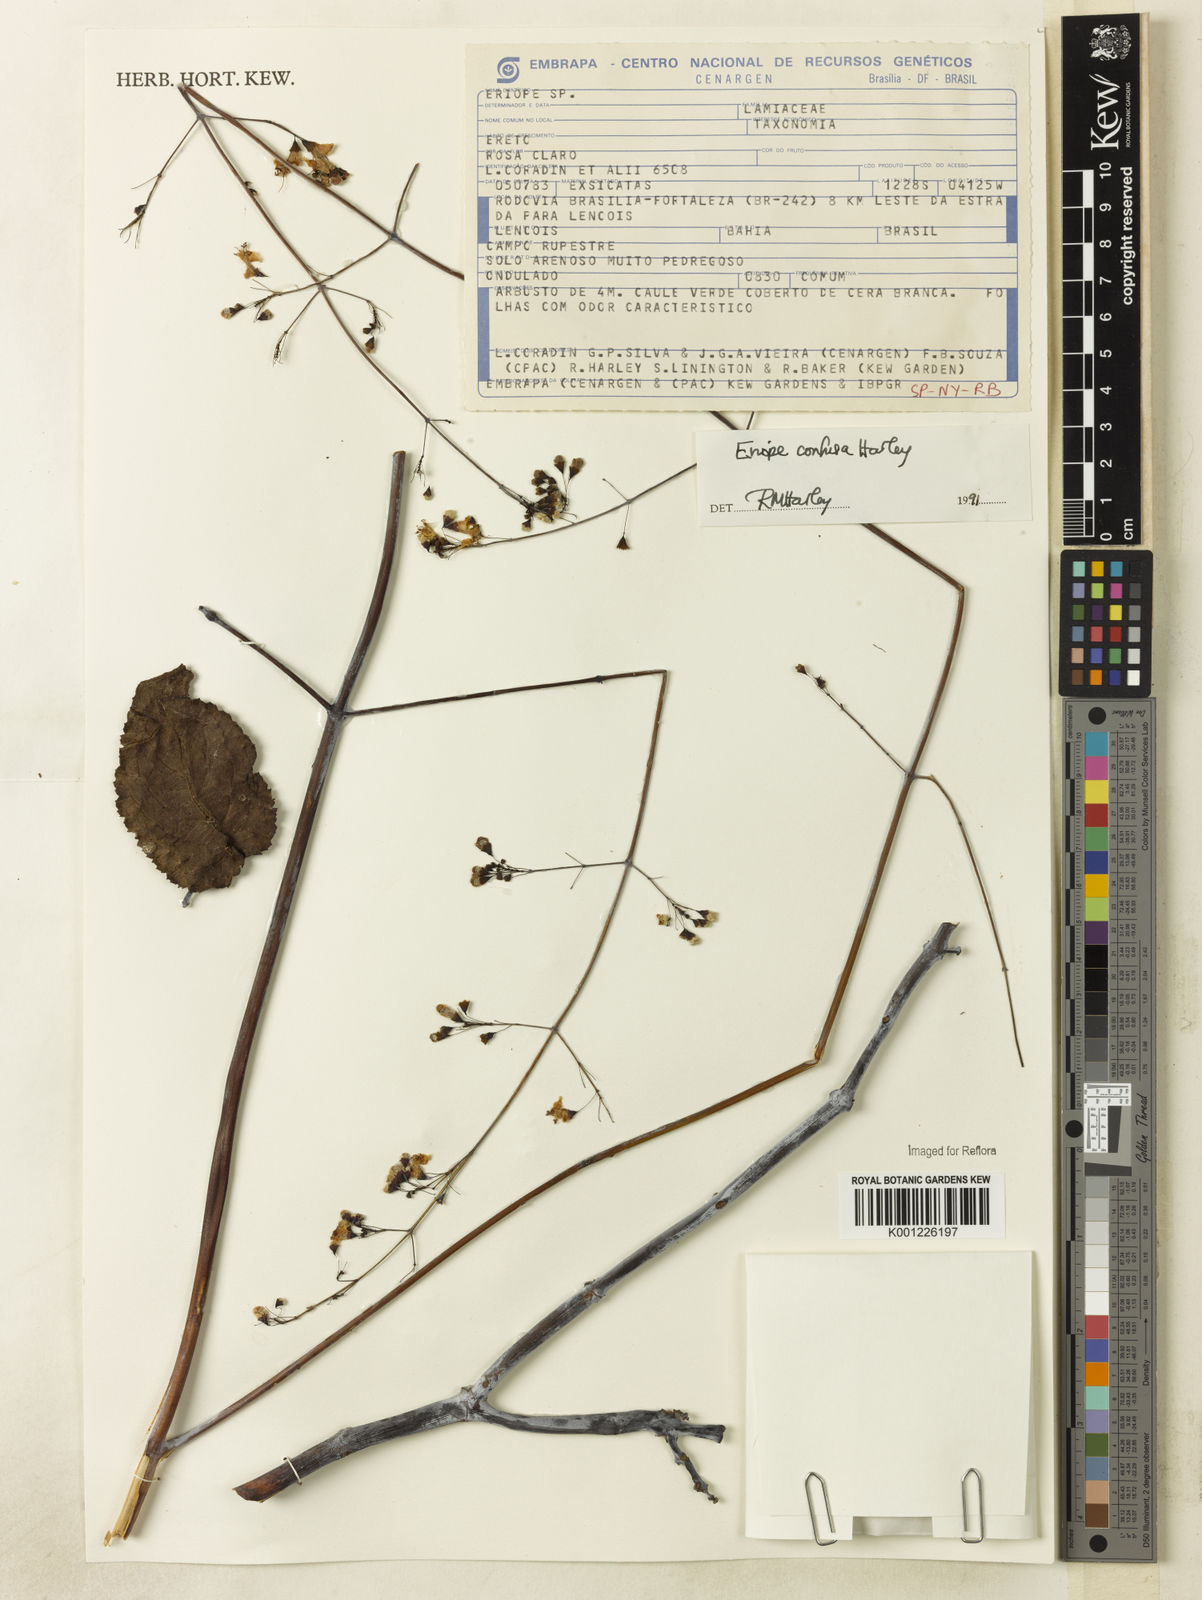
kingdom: Plantae
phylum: Tracheophyta
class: Magnoliopsida
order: Lamiales
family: Lamiaceae
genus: Eriope
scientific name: Eriope confusa
